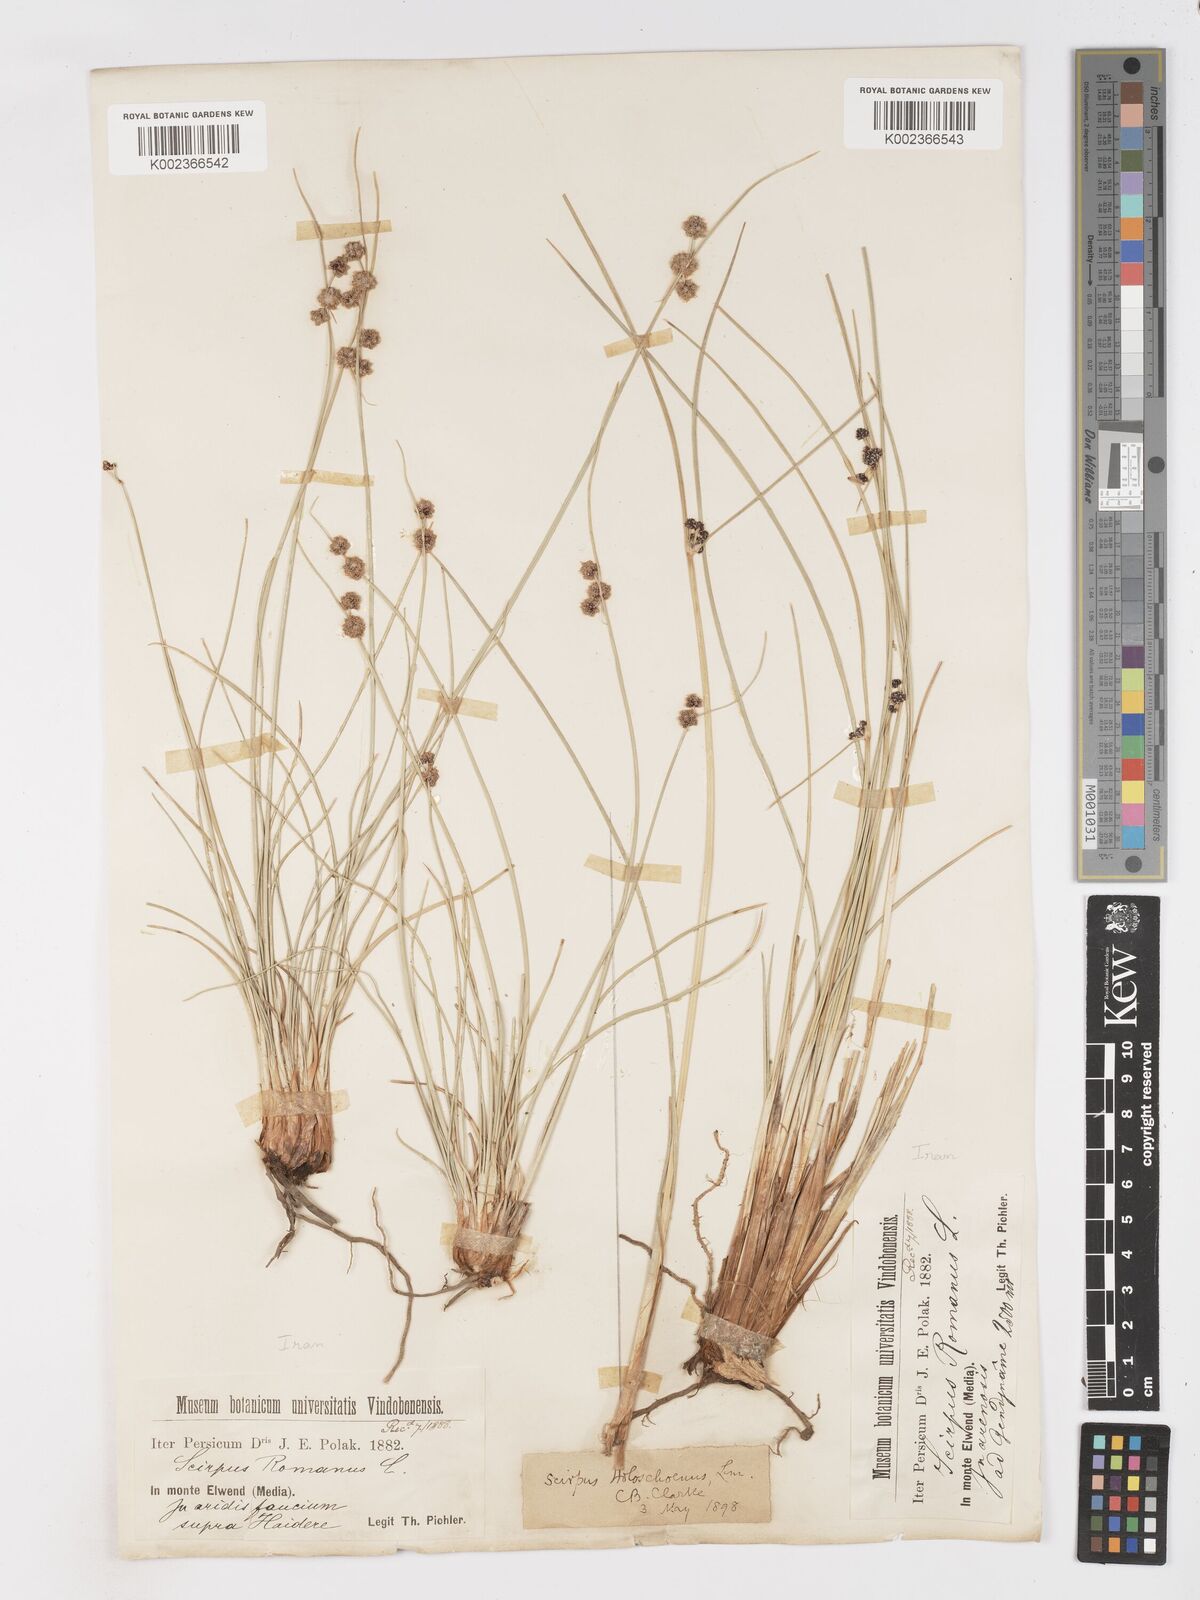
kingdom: Plantae
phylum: Tracheophyta
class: Liliopsida
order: Poales
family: Cyperaceae
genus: Scirpoides
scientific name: Scirpoides holoschoenus
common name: Round-headed club-rush
